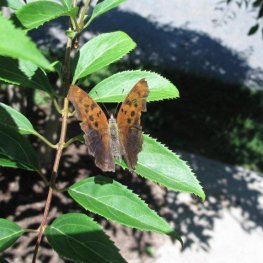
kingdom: Animalia
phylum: Arthropoda
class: Insecta
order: Lepidoptera
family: Nymphalidae
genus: Polygonia
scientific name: Polygonia interrogationis
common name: Question Mark
